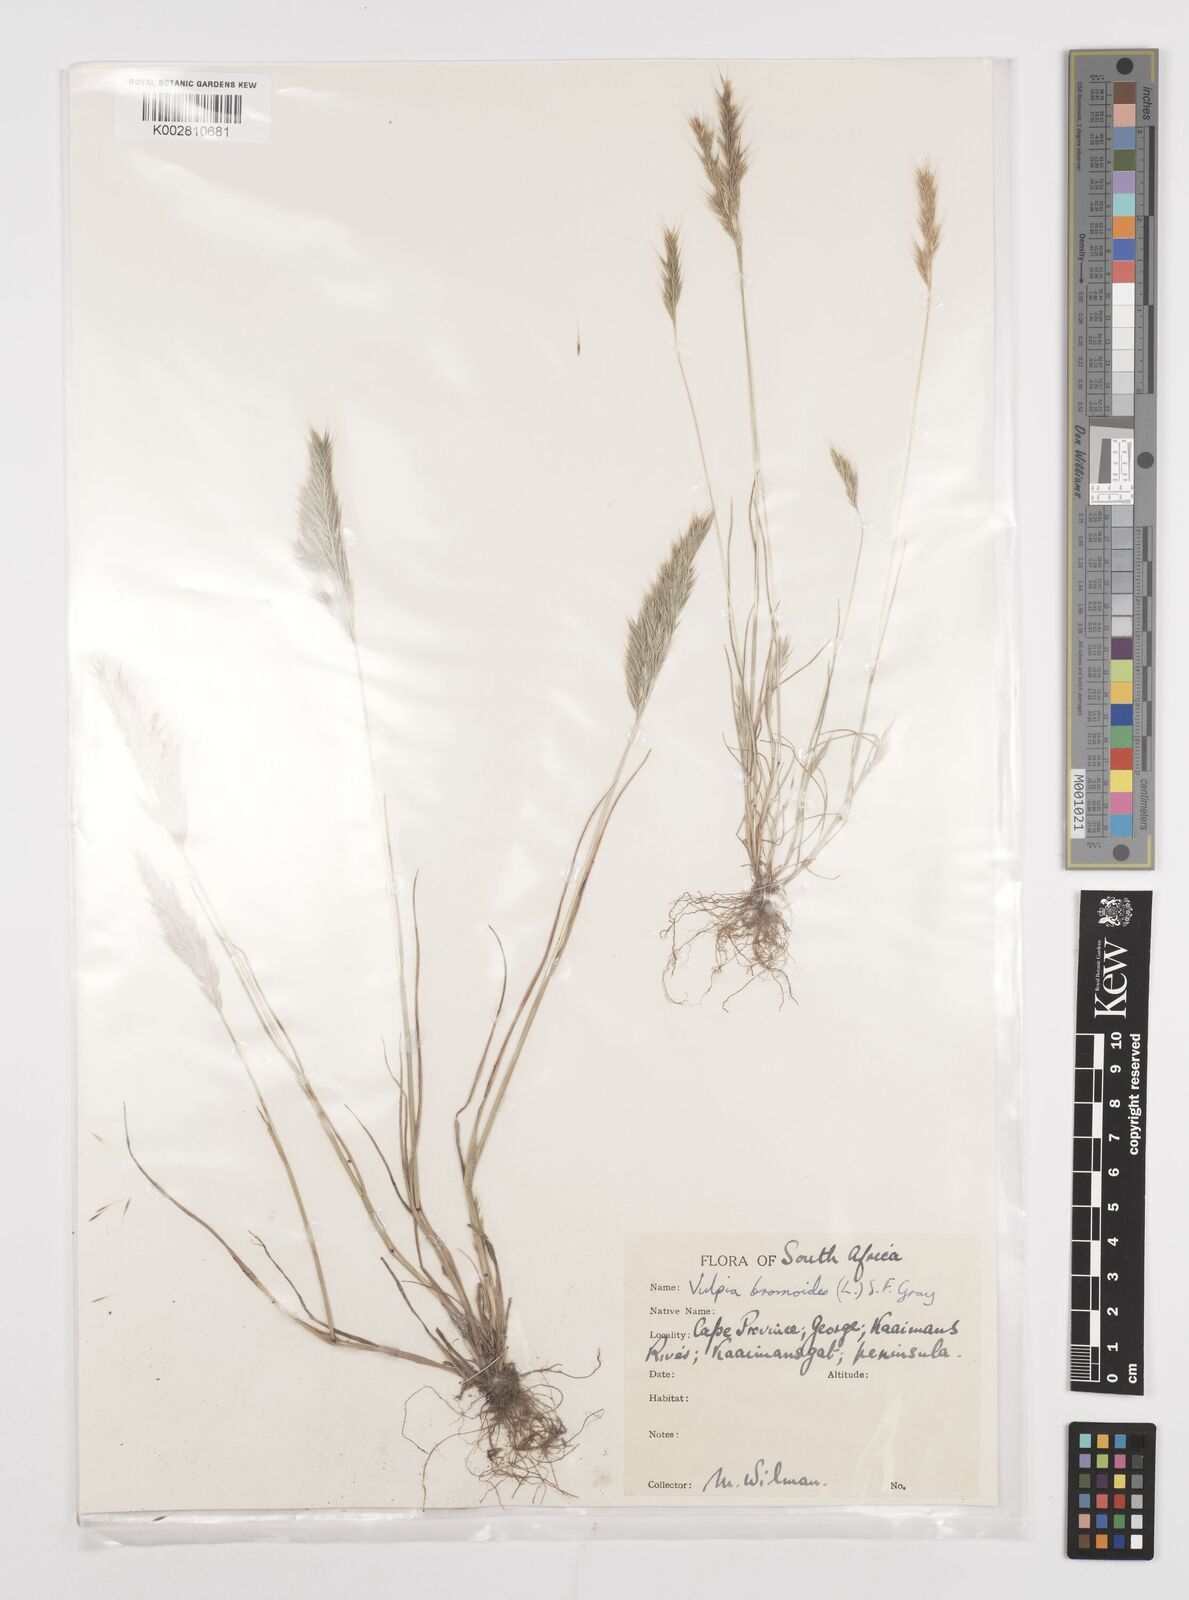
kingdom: Plantae
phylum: Tracheophyta
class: Liliopsida
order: Poales
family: Poaceae
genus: Festuca
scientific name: Festuca bromoides
